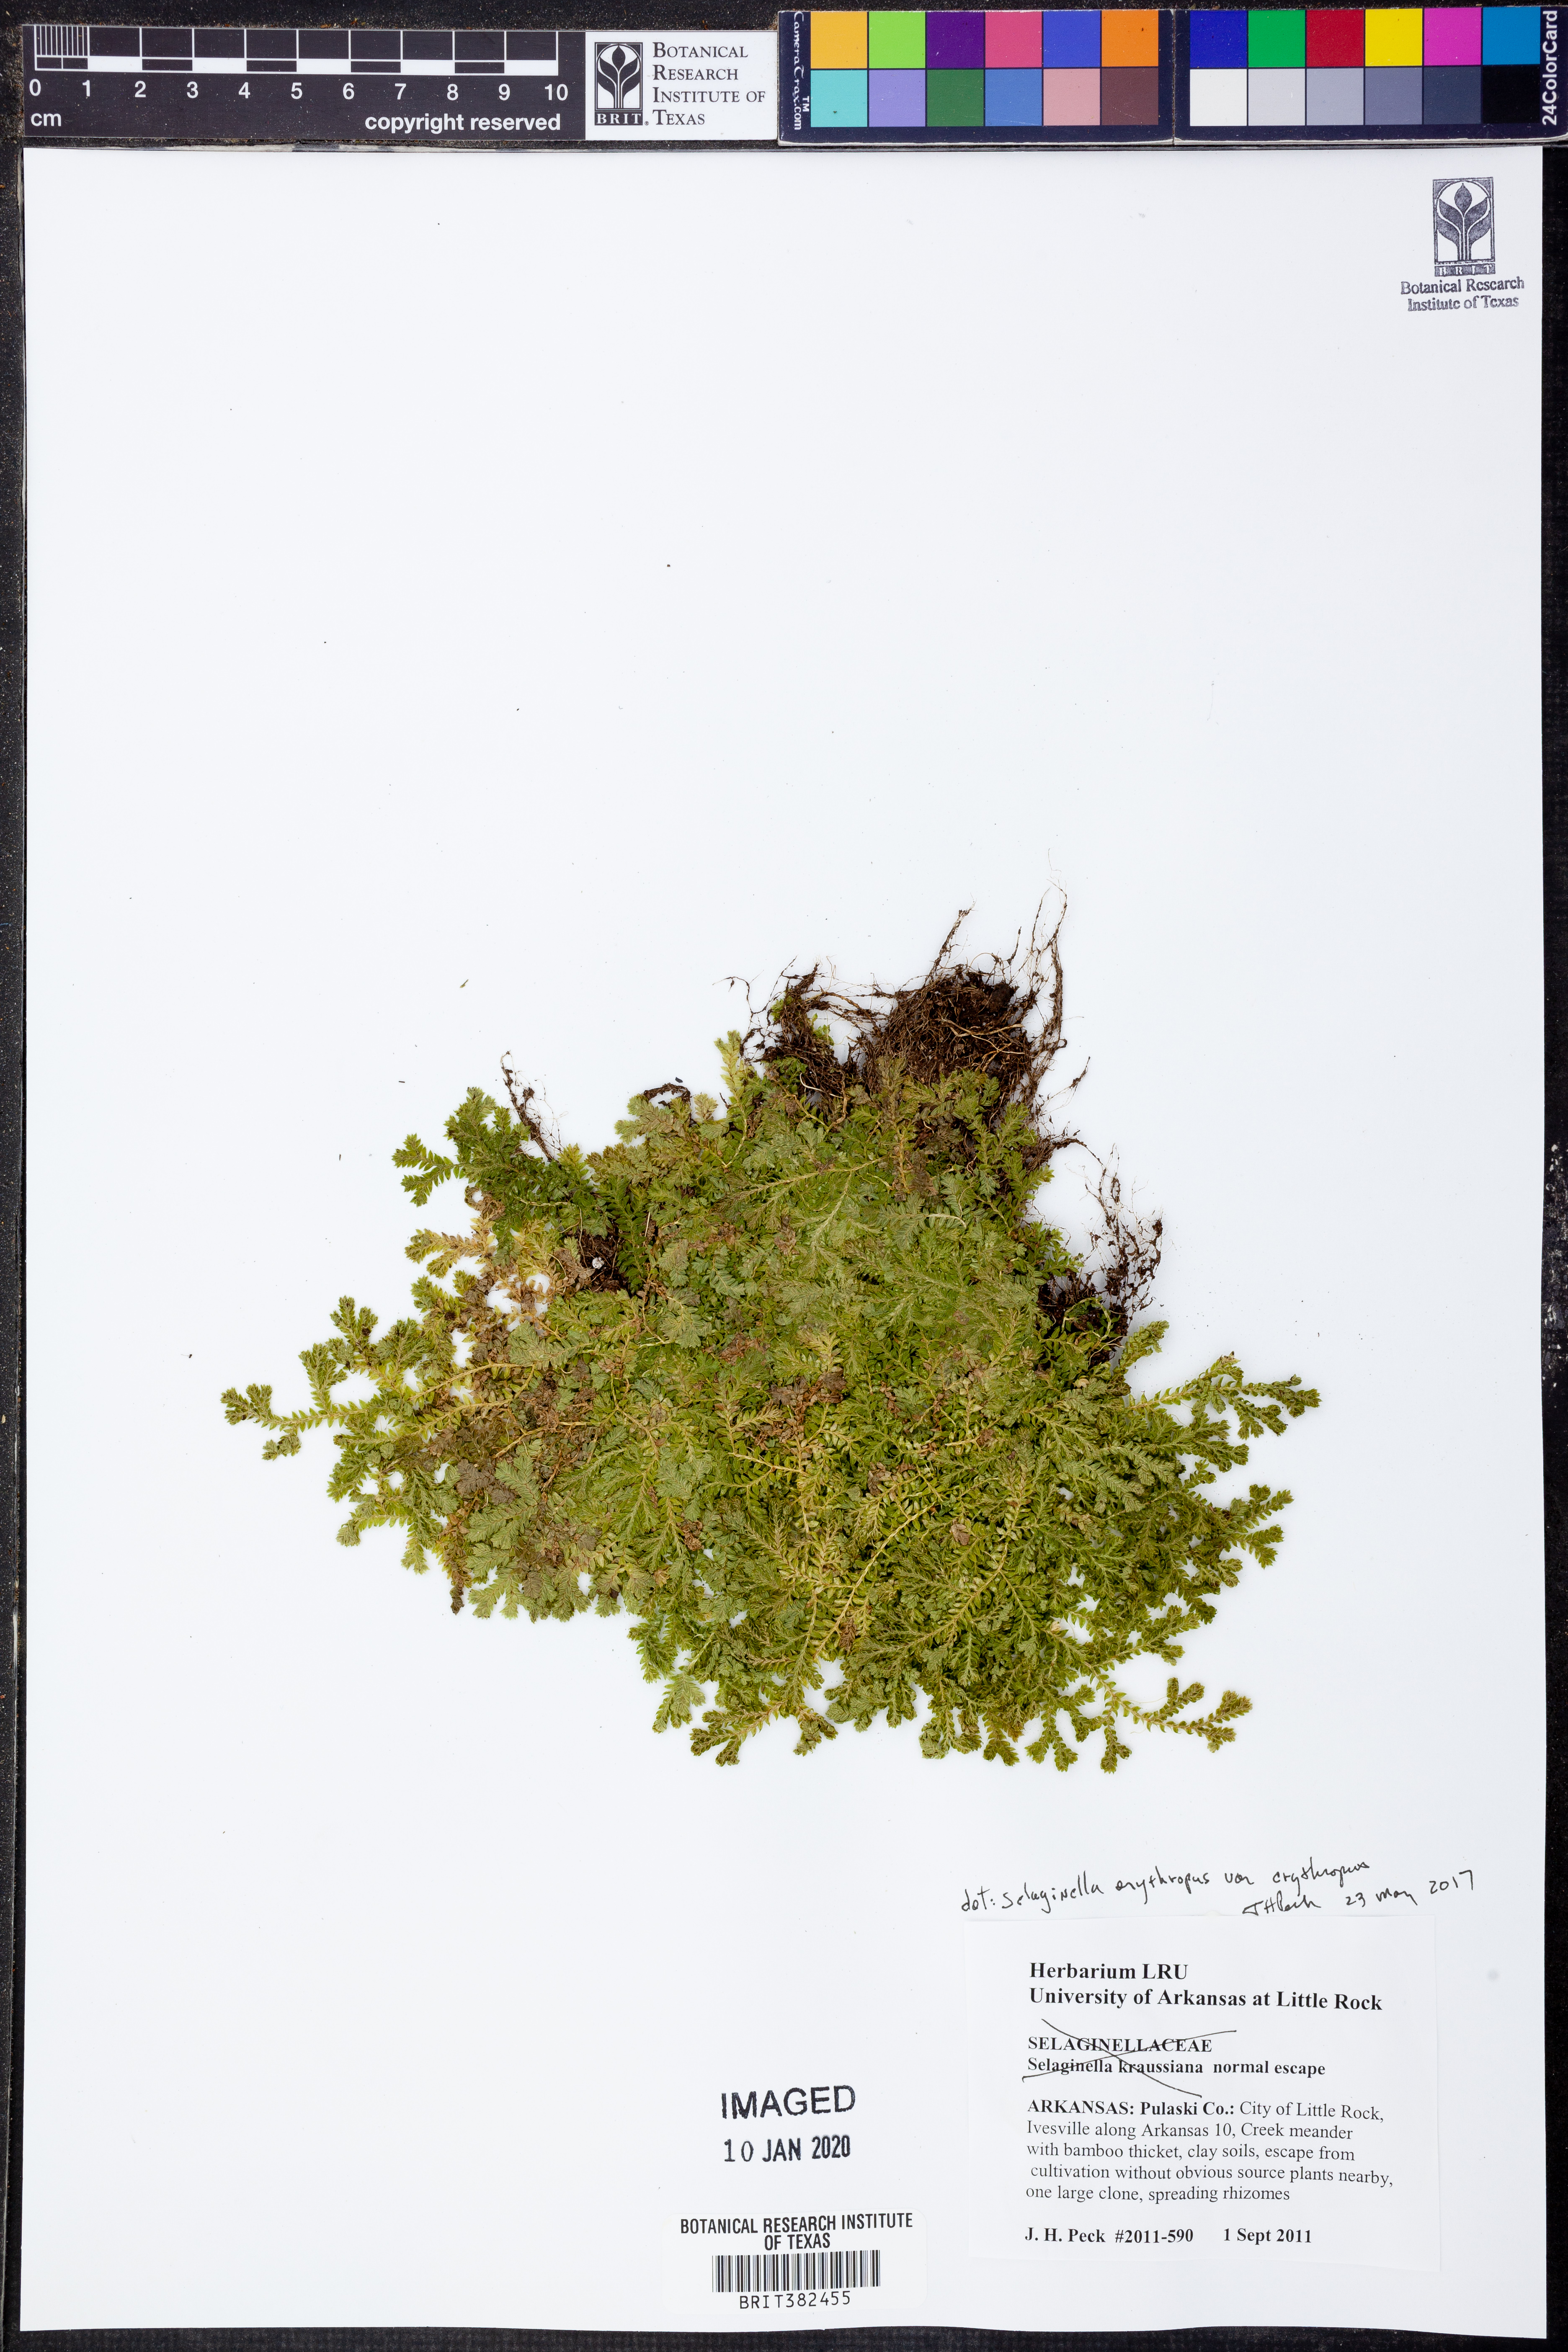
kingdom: Plantae
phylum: Tracheophyta
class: Lycopodiopsida
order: Selaginellales
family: Selaginellaceae
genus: Selaginella
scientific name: Selaginella erythropus
